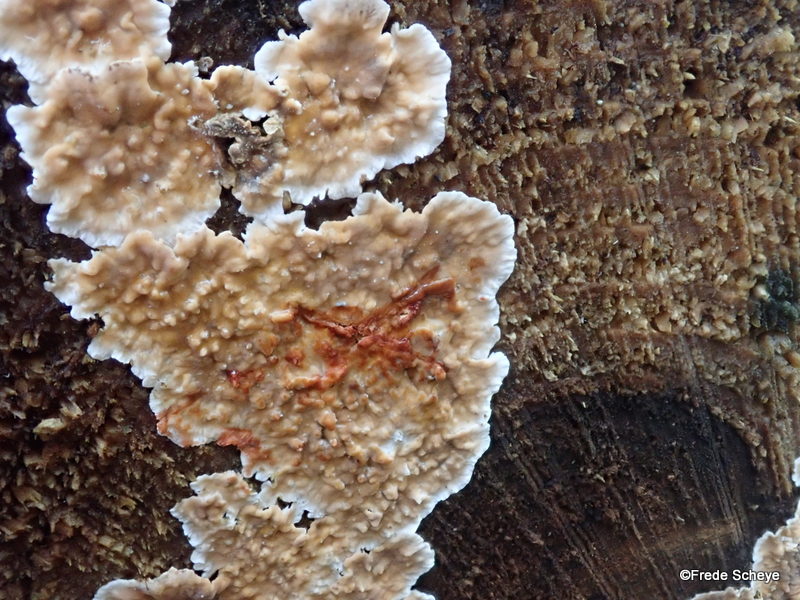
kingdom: Fungi
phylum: Basidiomycota
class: Agaricomycetes
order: Russulales
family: Stereaceae
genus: Stereum
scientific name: Stereum sanguinolentum
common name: blødende lædersvamp
